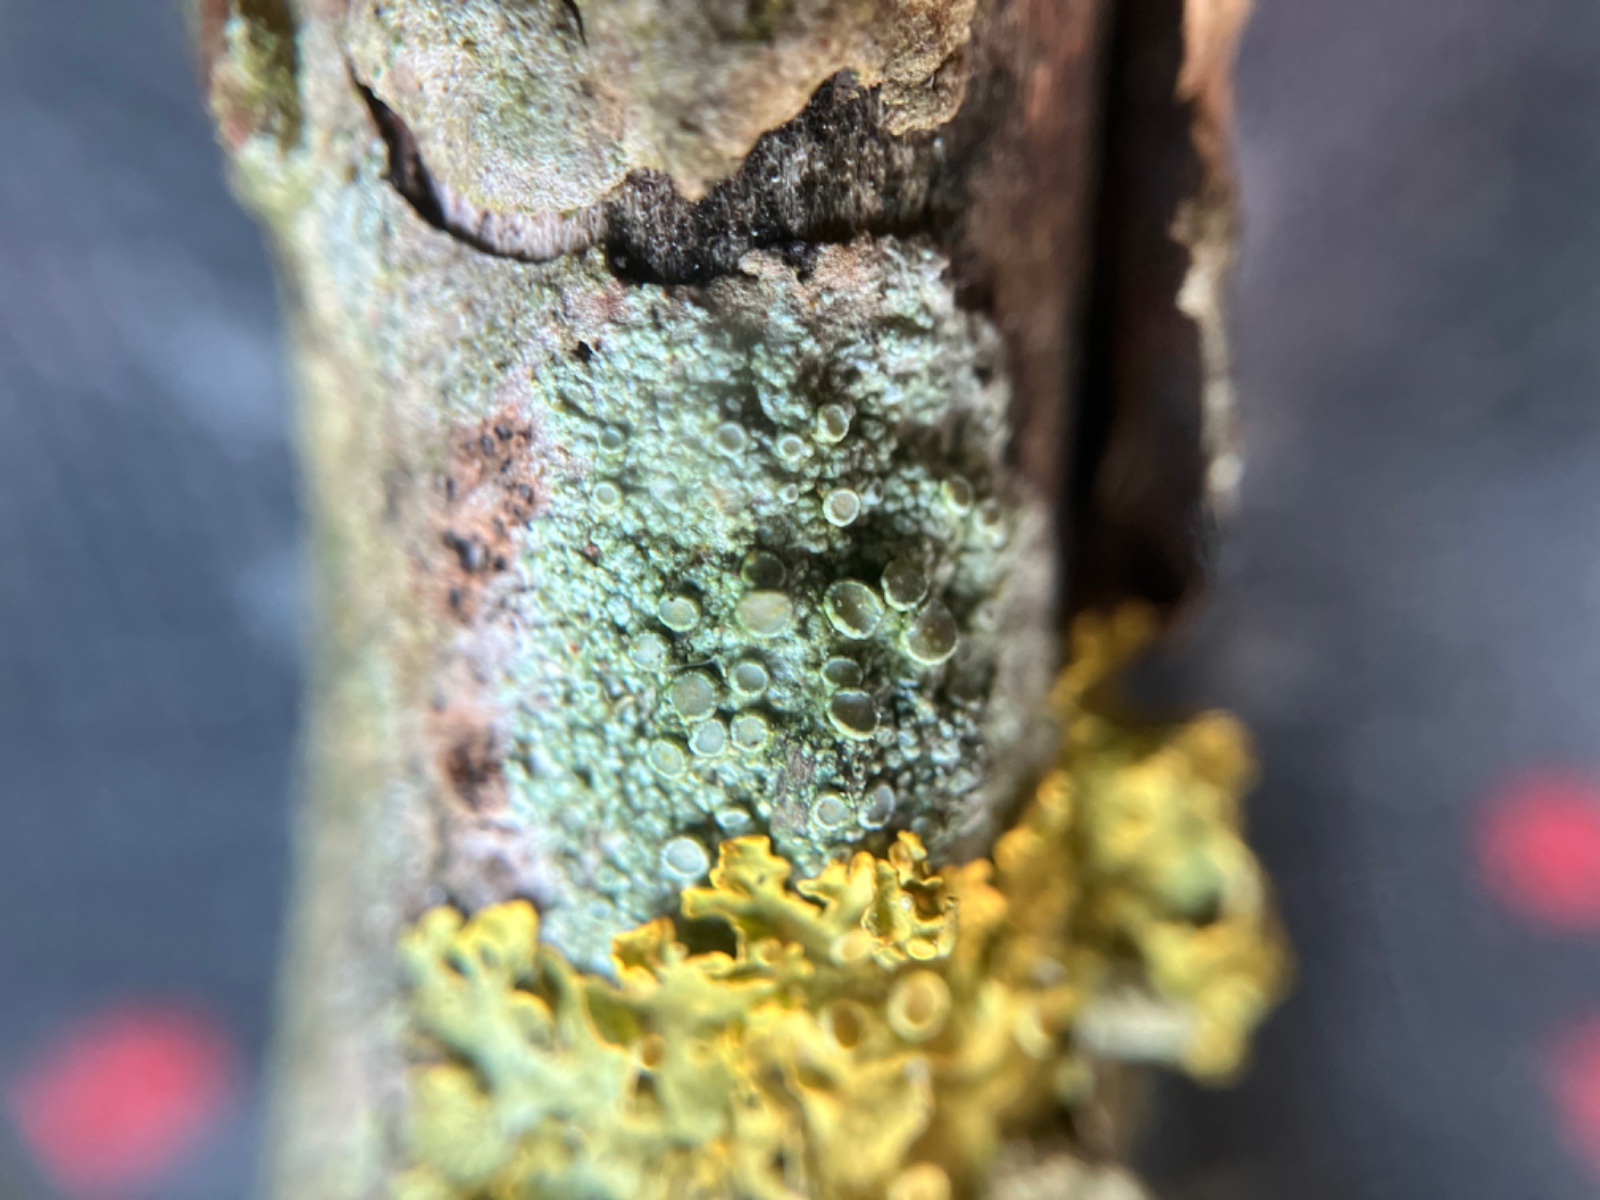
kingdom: Fungi
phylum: Ascomycota
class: Lecanoromycetes
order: Lecanorales
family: Lecanoraceae
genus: Lecanora
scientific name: Lecanora chlarotera
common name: brun kantskivelav
